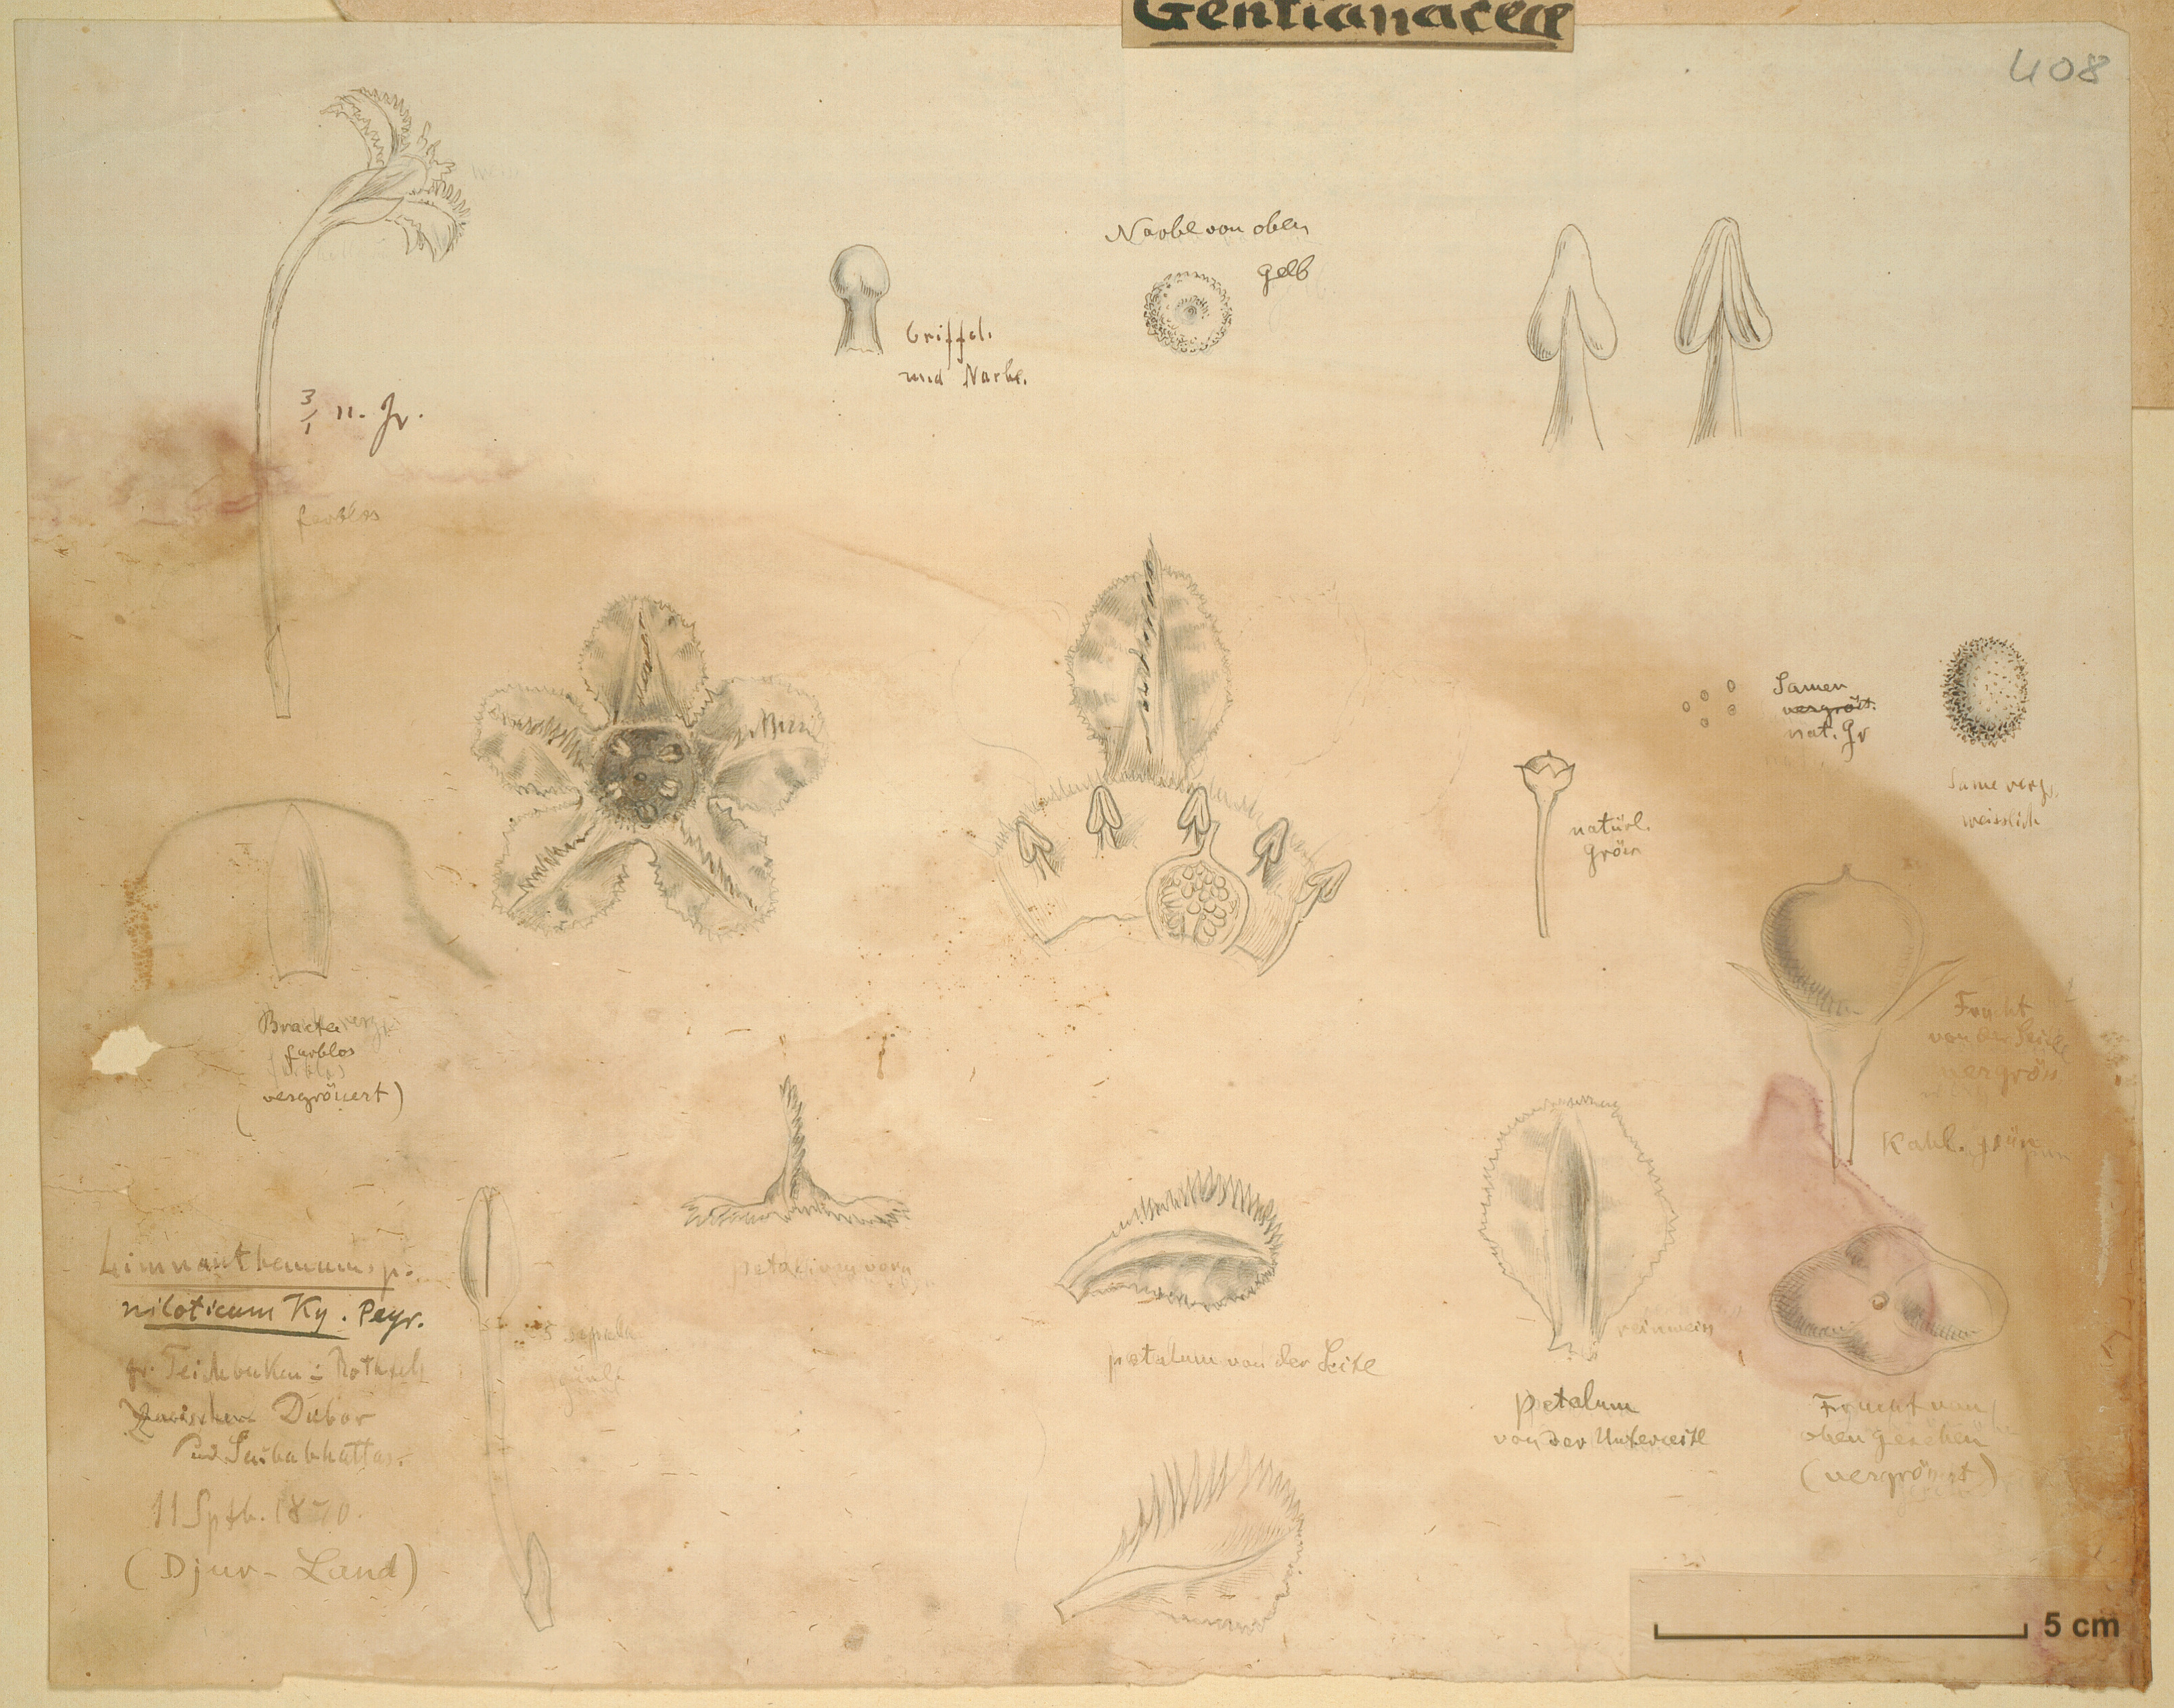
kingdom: Plantae
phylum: Tracheophyta
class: Magnoliopsida
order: Asterales
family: Menyanthaceae
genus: Nymphoides
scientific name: Nymphoides forbesiana
